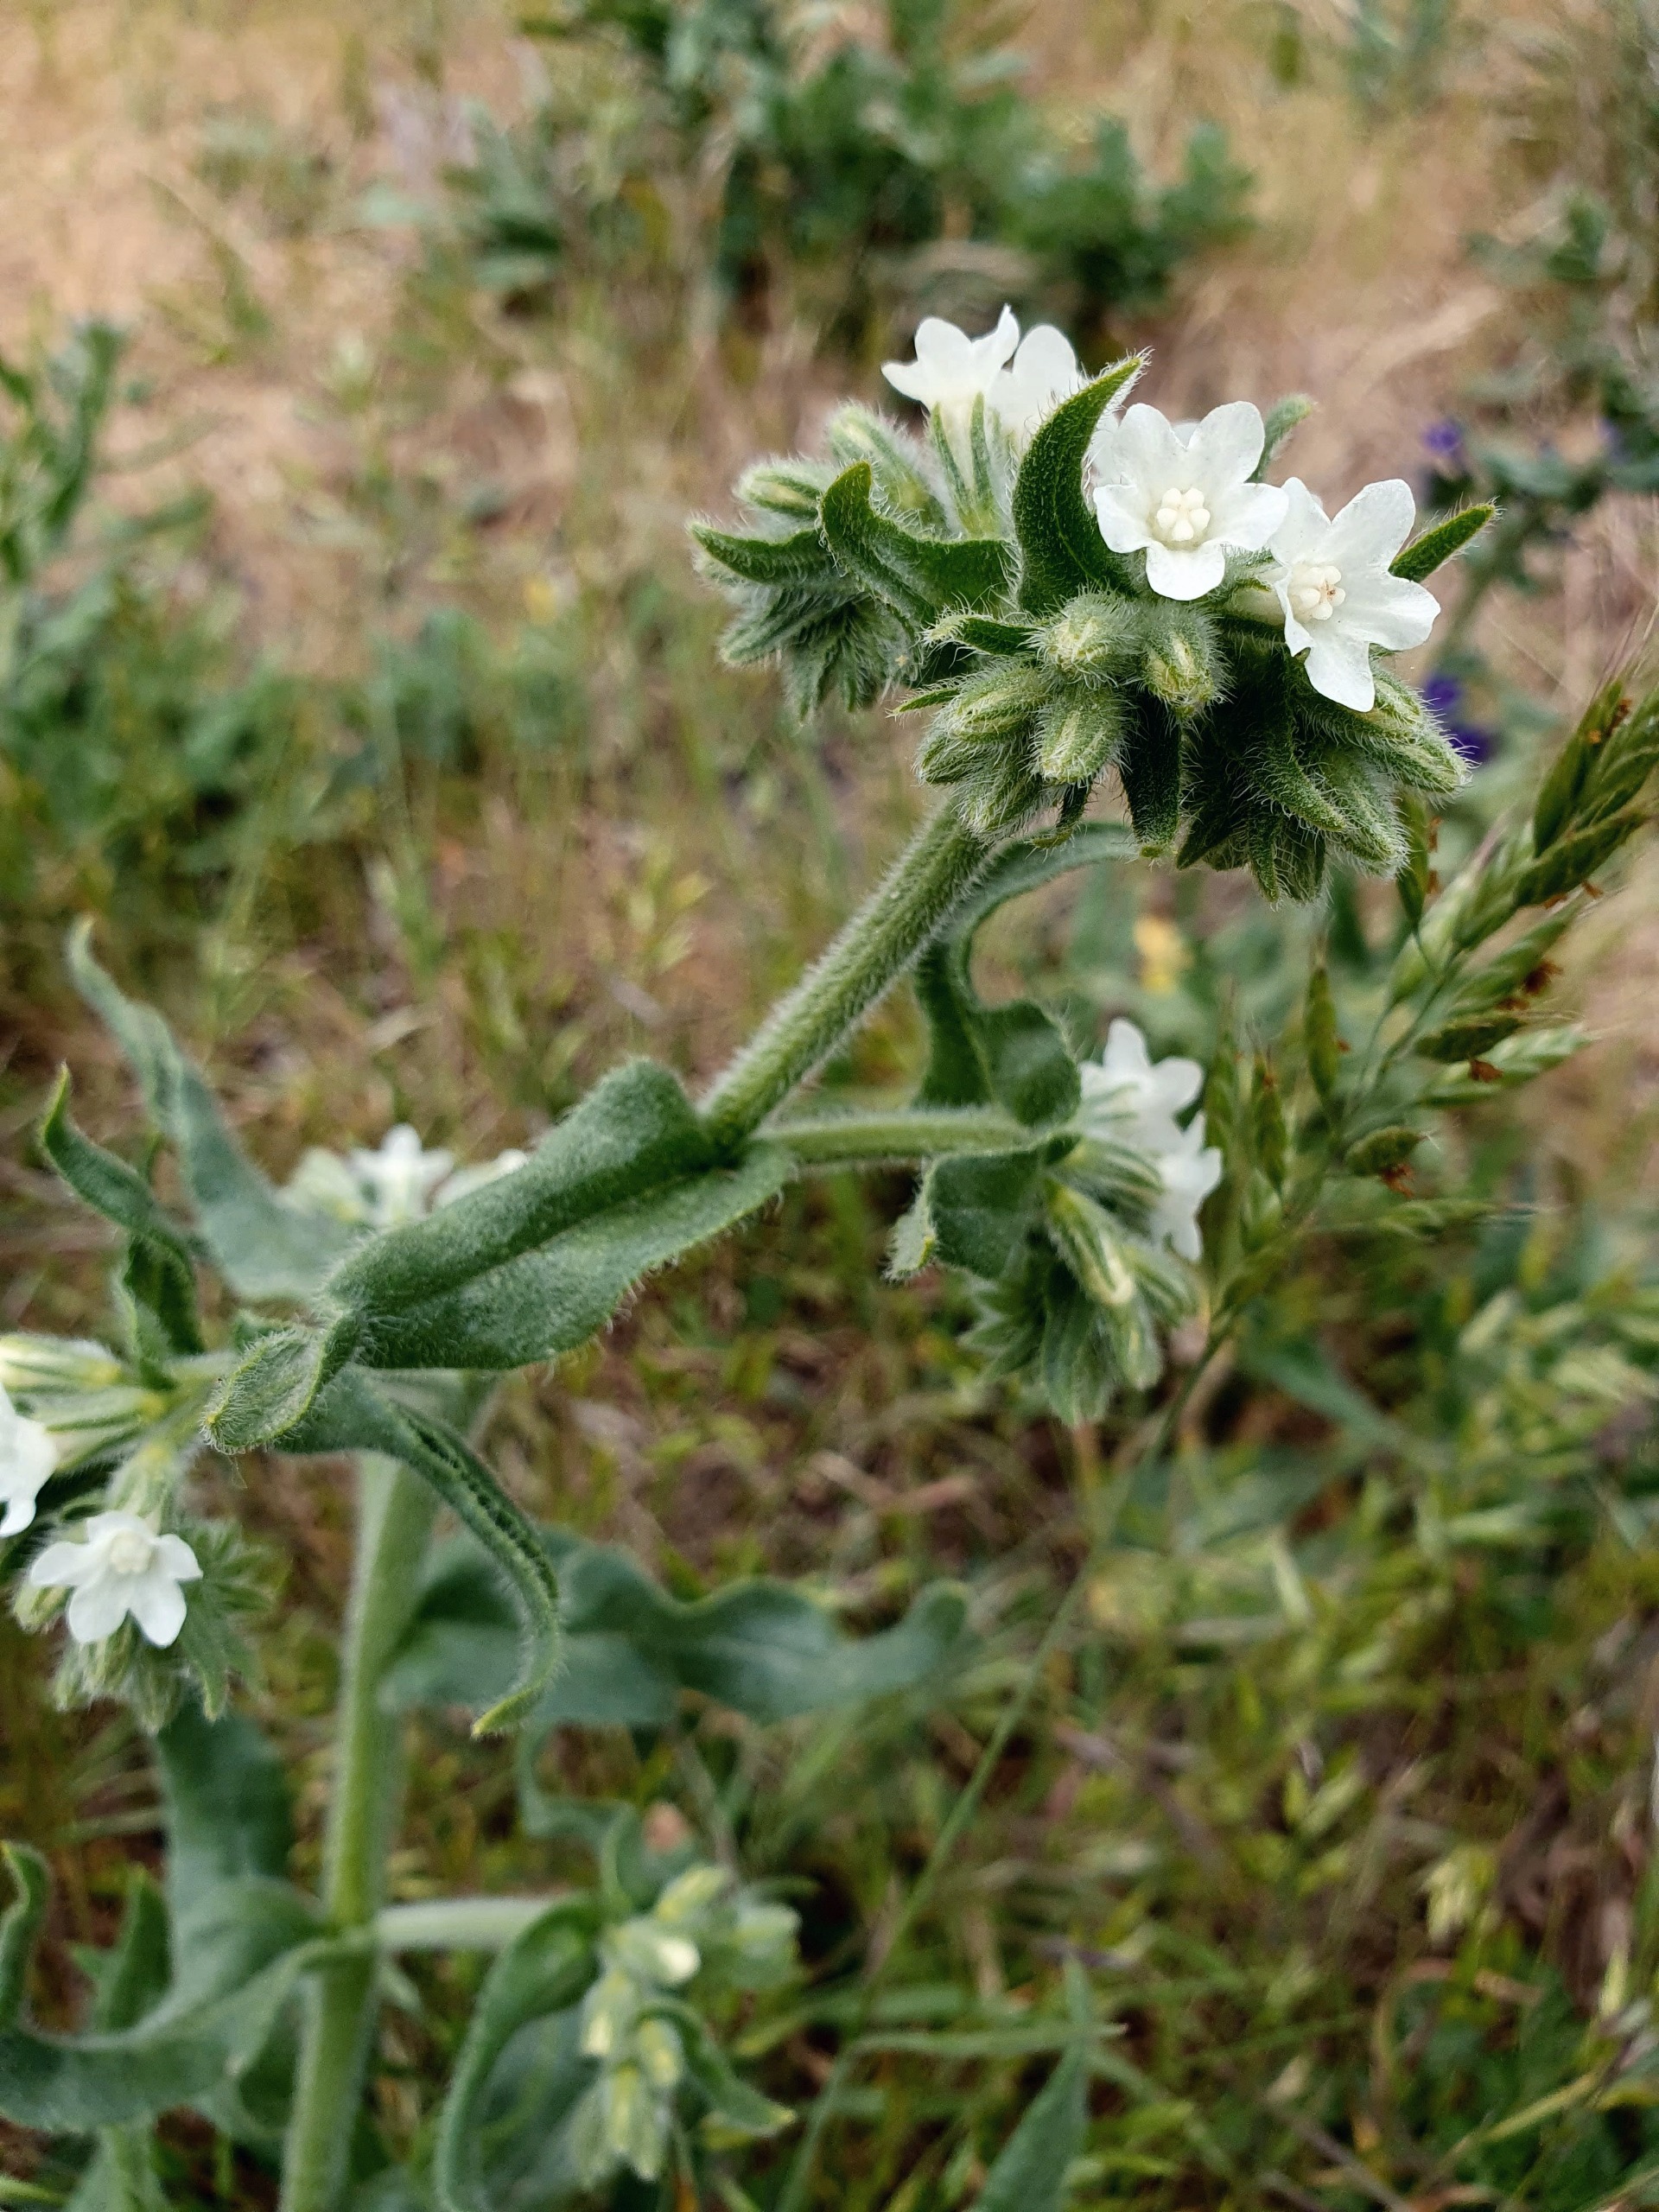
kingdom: Plantae
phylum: Tracheophyta
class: Magnoliopsida
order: Boraginales
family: Boraginaceae
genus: Anchusa
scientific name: Anchusa officinalis
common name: Læge-oksetunge
